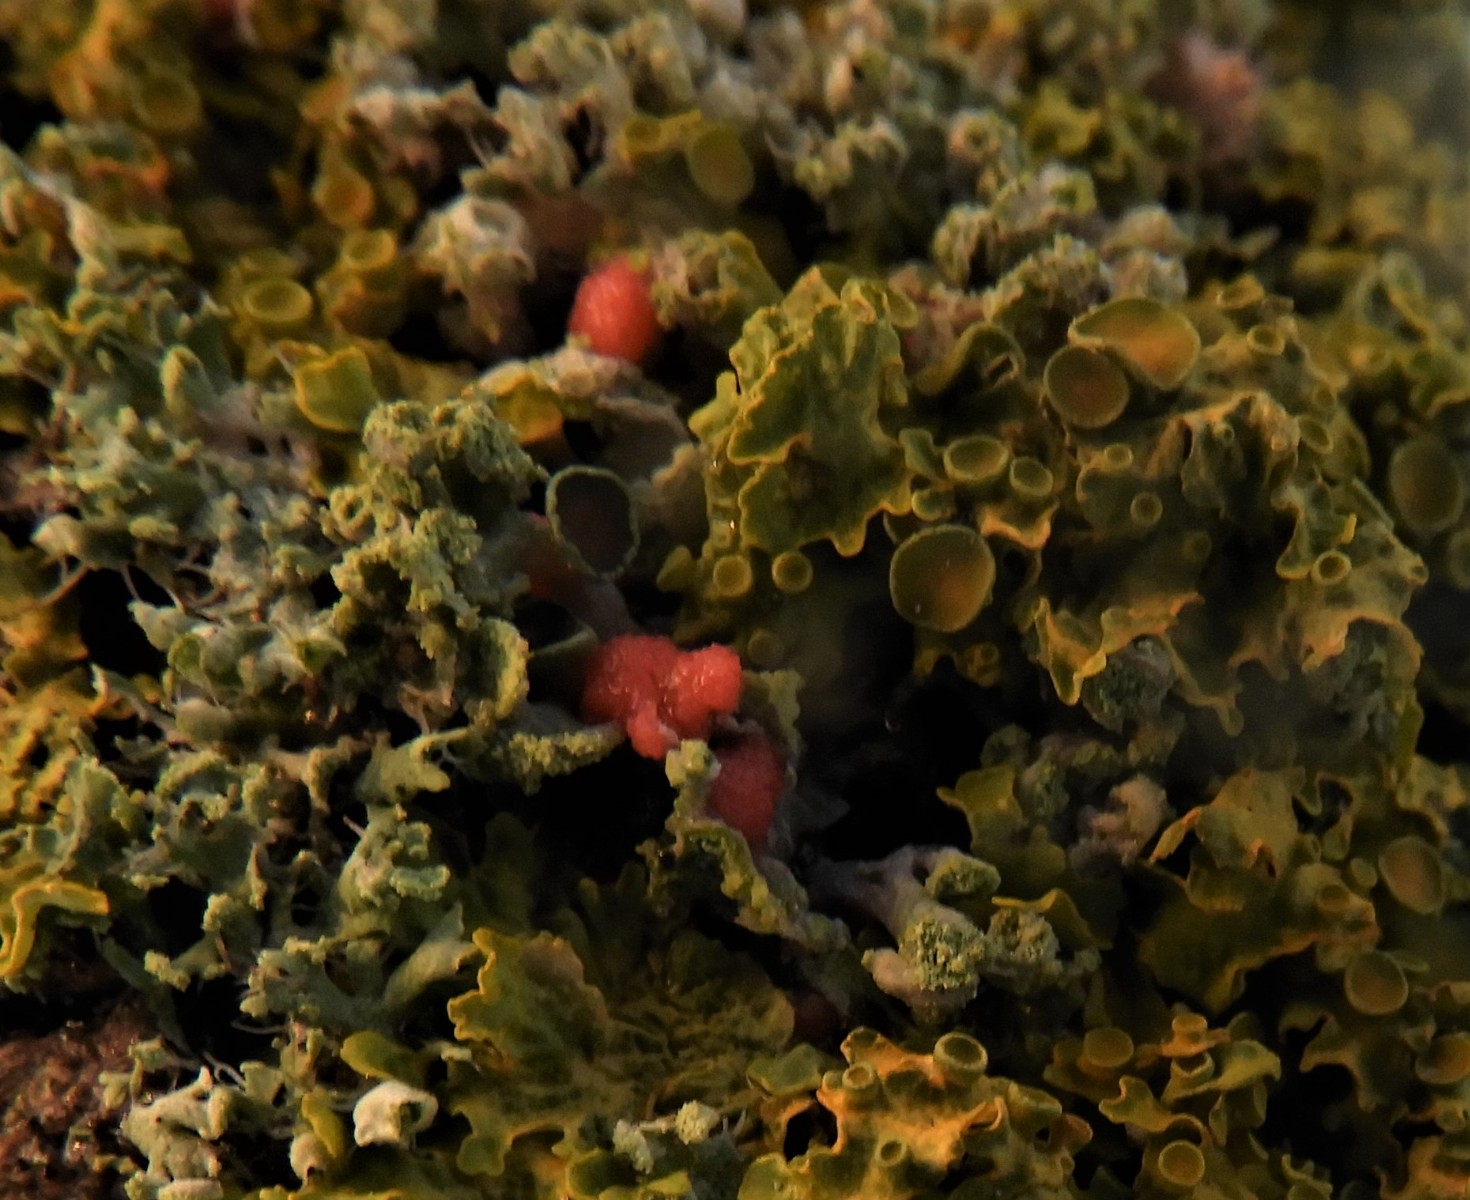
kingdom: Fungi
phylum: Ascomycota
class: Sordariomycetes
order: Hypocreales
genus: Illosporiopsis
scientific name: Illosporiopsis christiansenii
